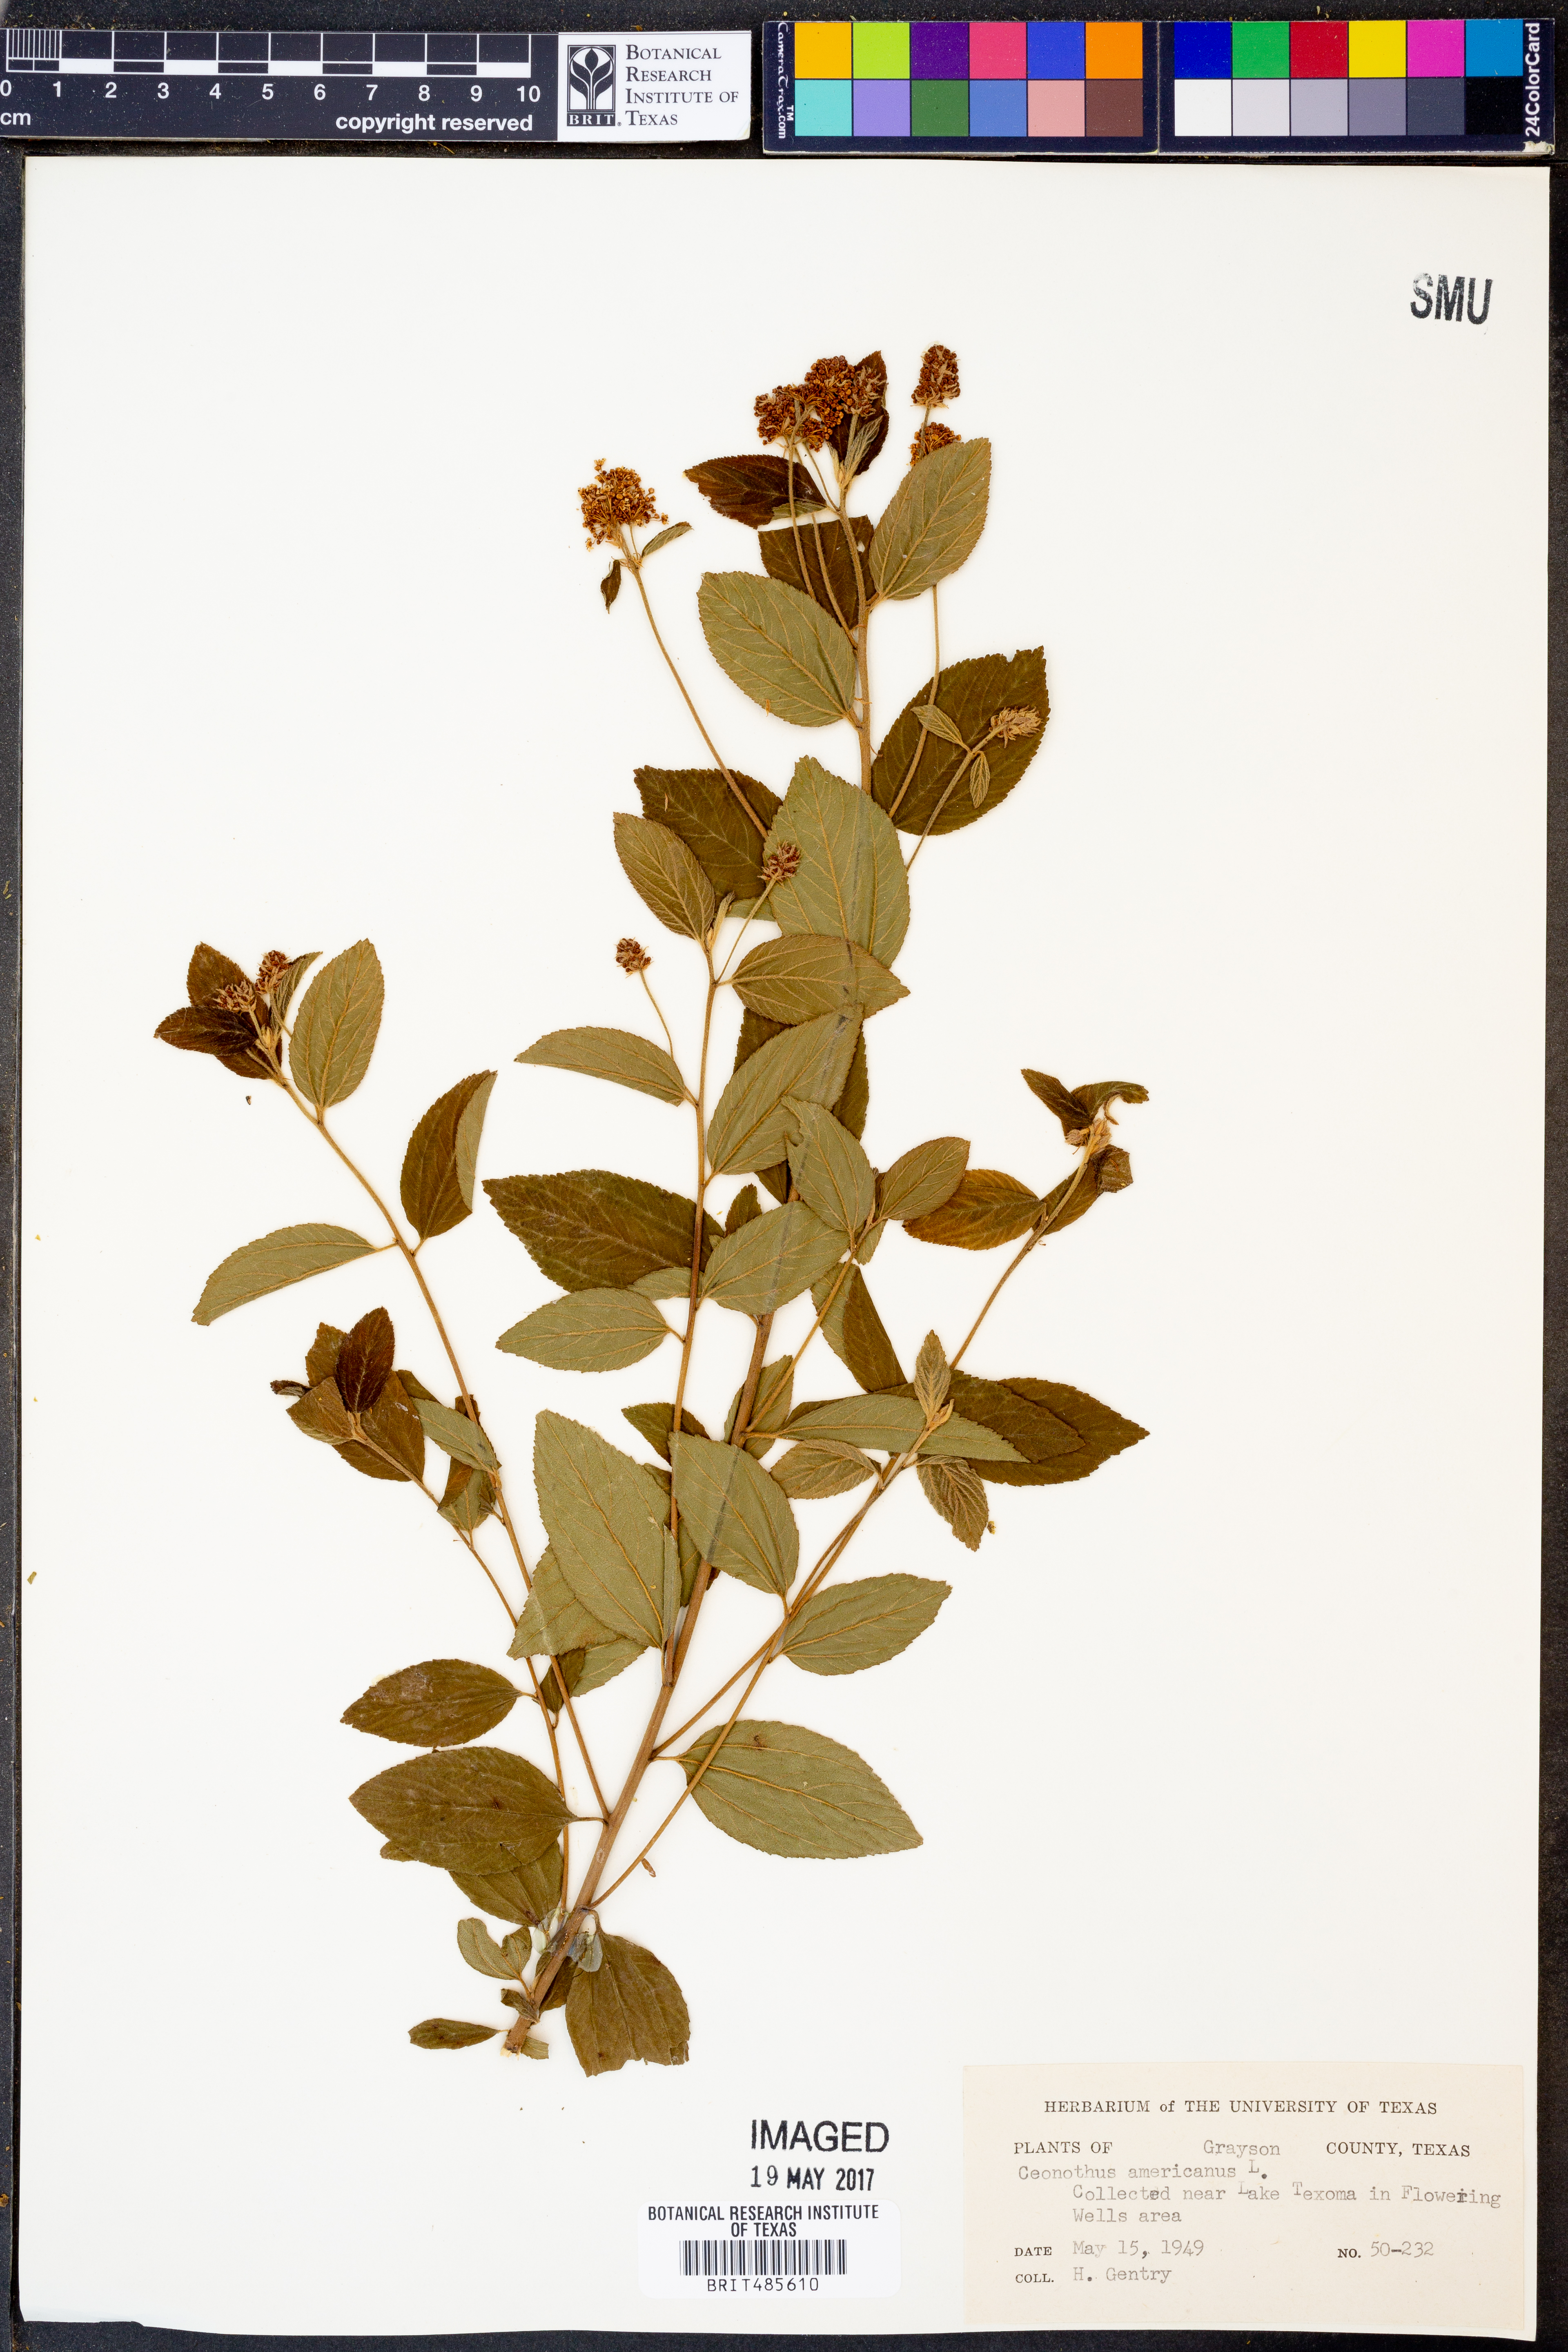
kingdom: Plantae
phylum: Tracheophyta
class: Magnoliopsida
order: Rosales
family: Rhamnaceae
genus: Ceanothus
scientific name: Ceanothus americanus
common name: Redroot
